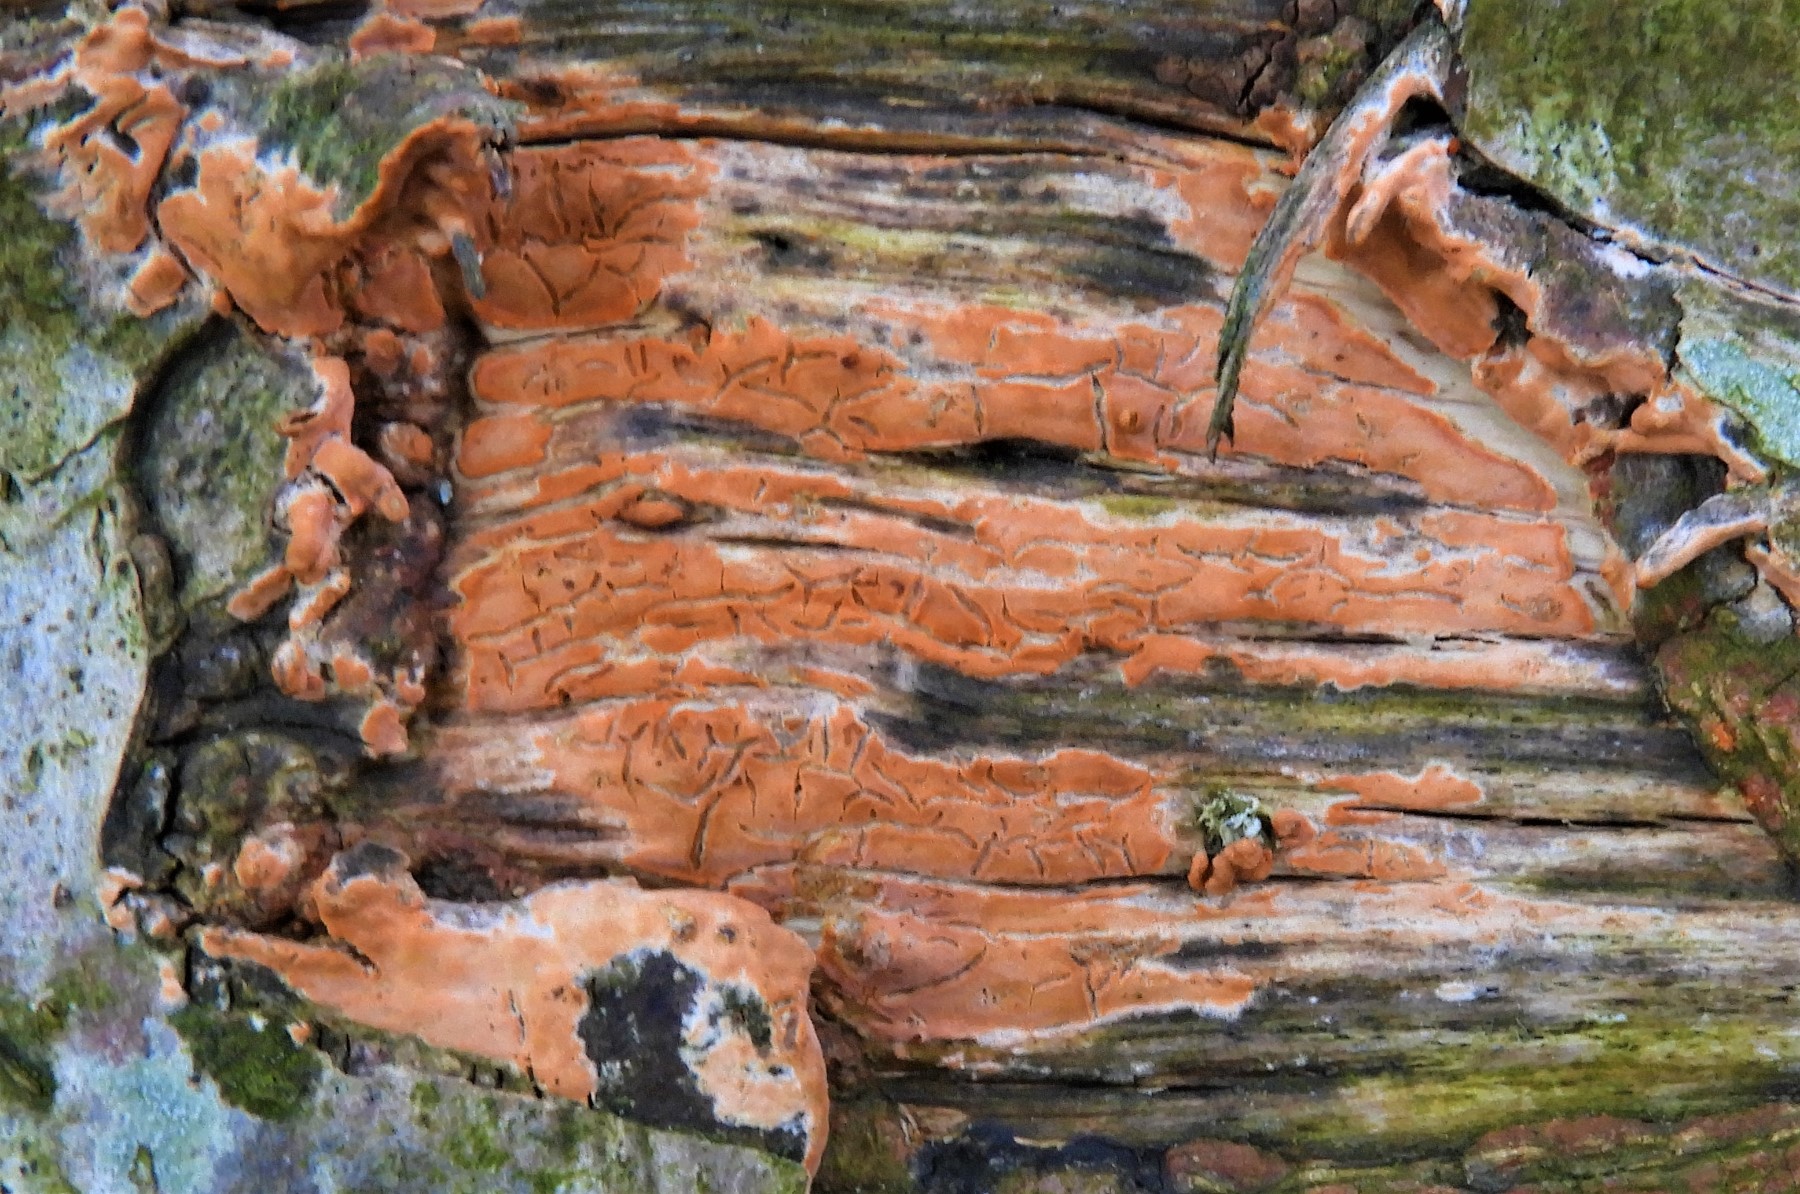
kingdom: Fungi
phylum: Basidiomycota
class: Agaricomycetes
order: Russulales
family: Peniophoraceae
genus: Peniophora
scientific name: Peniophora incarnata
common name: laksefarvet voksskind
